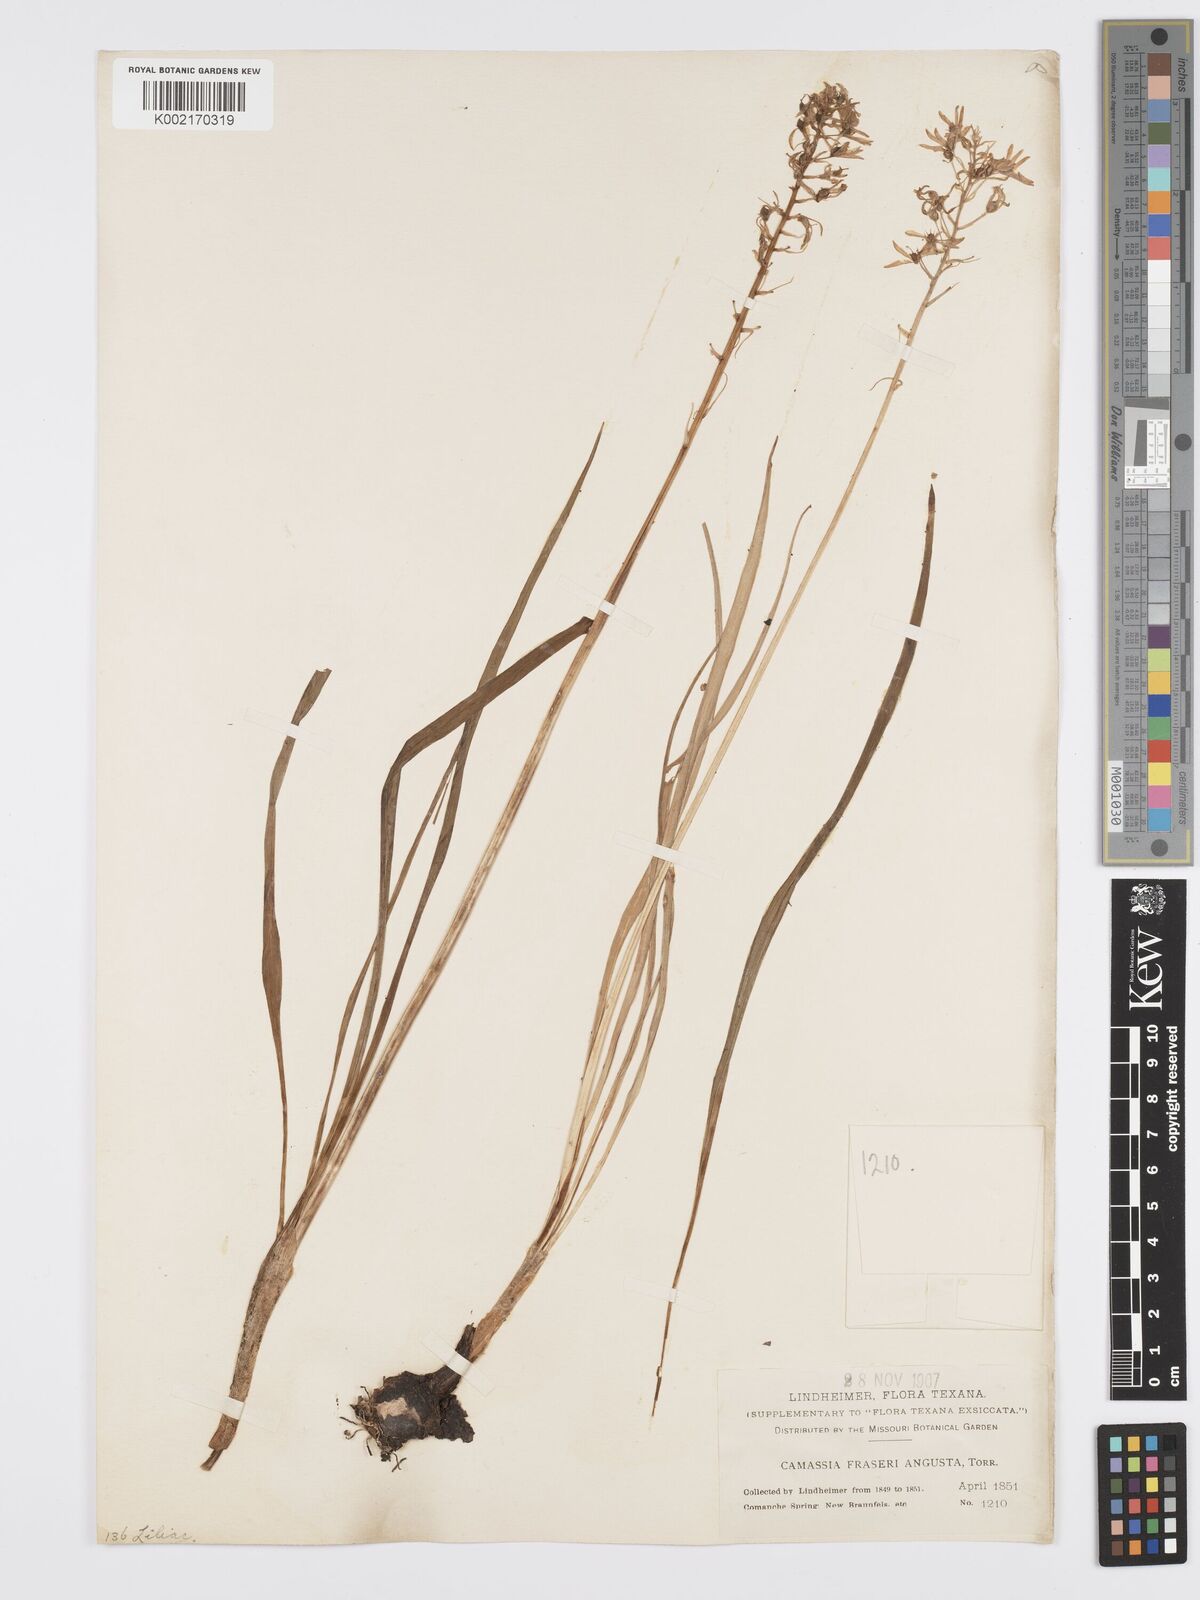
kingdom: Plantae
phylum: Tracheophyta
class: Liliopsida
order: Asparagales
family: Asparagaceae
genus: Camassia
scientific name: Camassia scilloides
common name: Wild hyacinth
